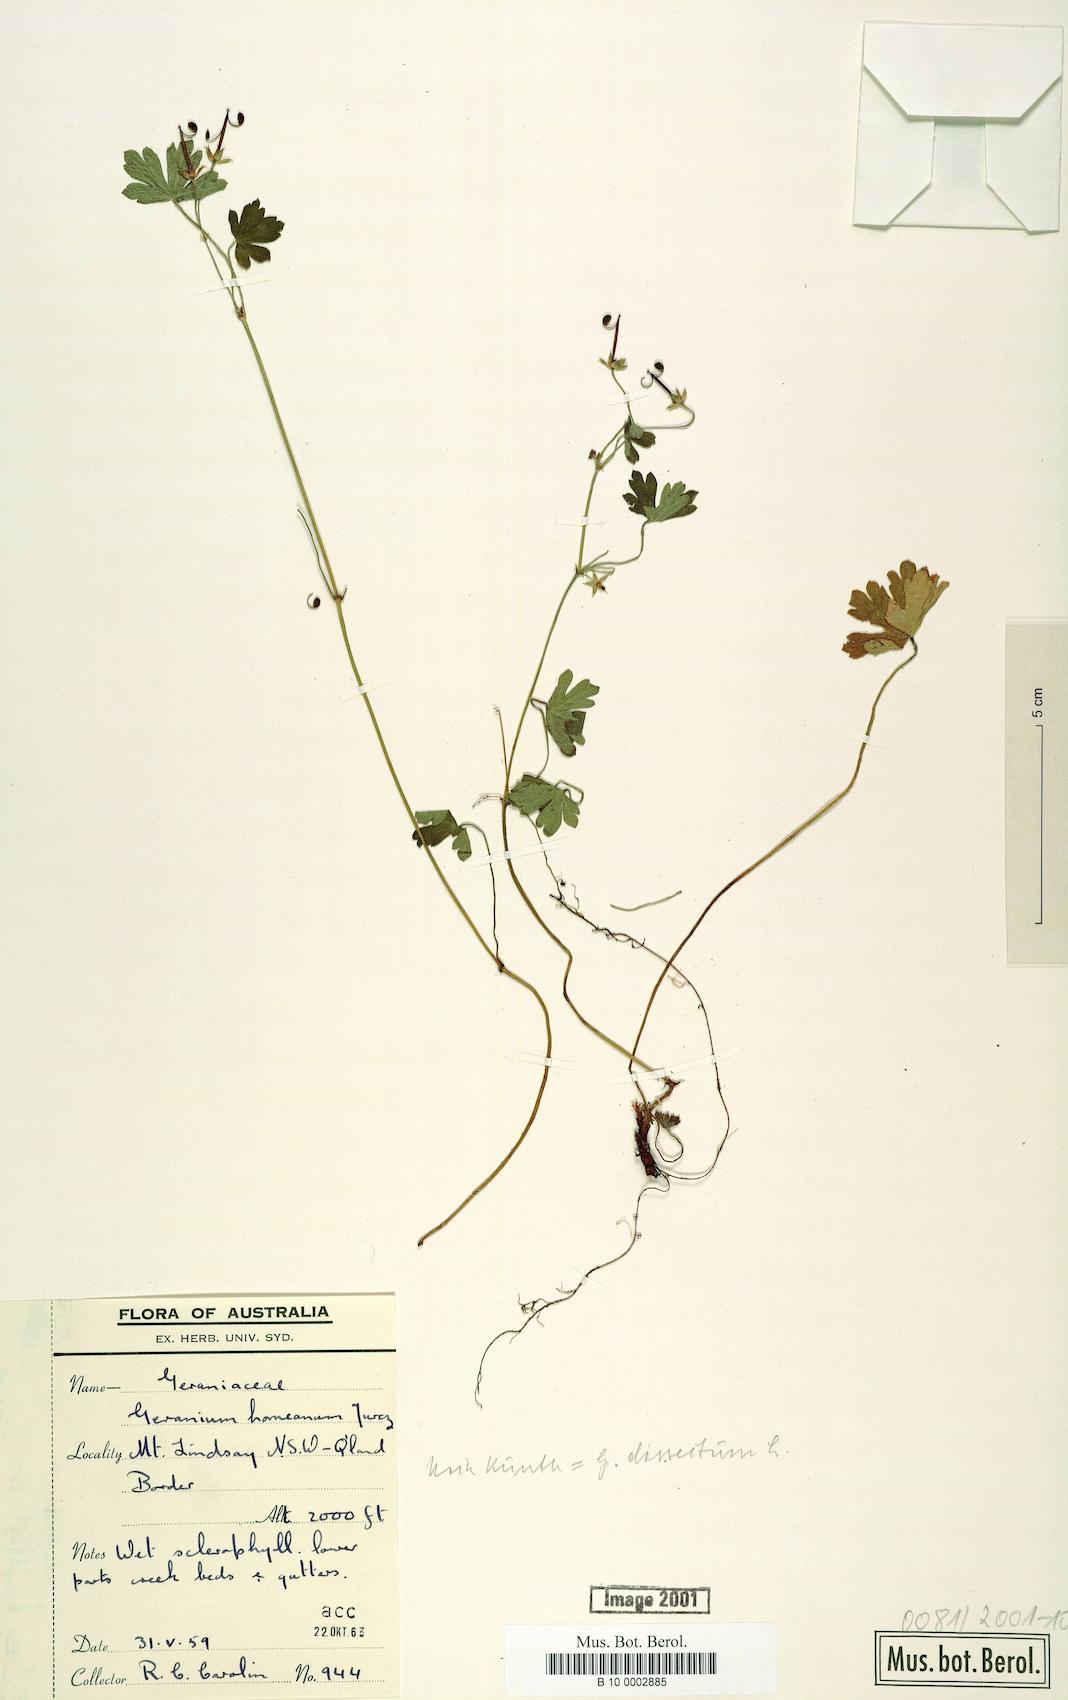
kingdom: Plantae
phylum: Tracheophyta
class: Magnoliopsida
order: Geraniales
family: Geraniaceae
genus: Geranium
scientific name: Geranium homeanum
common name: Australasian geranium
